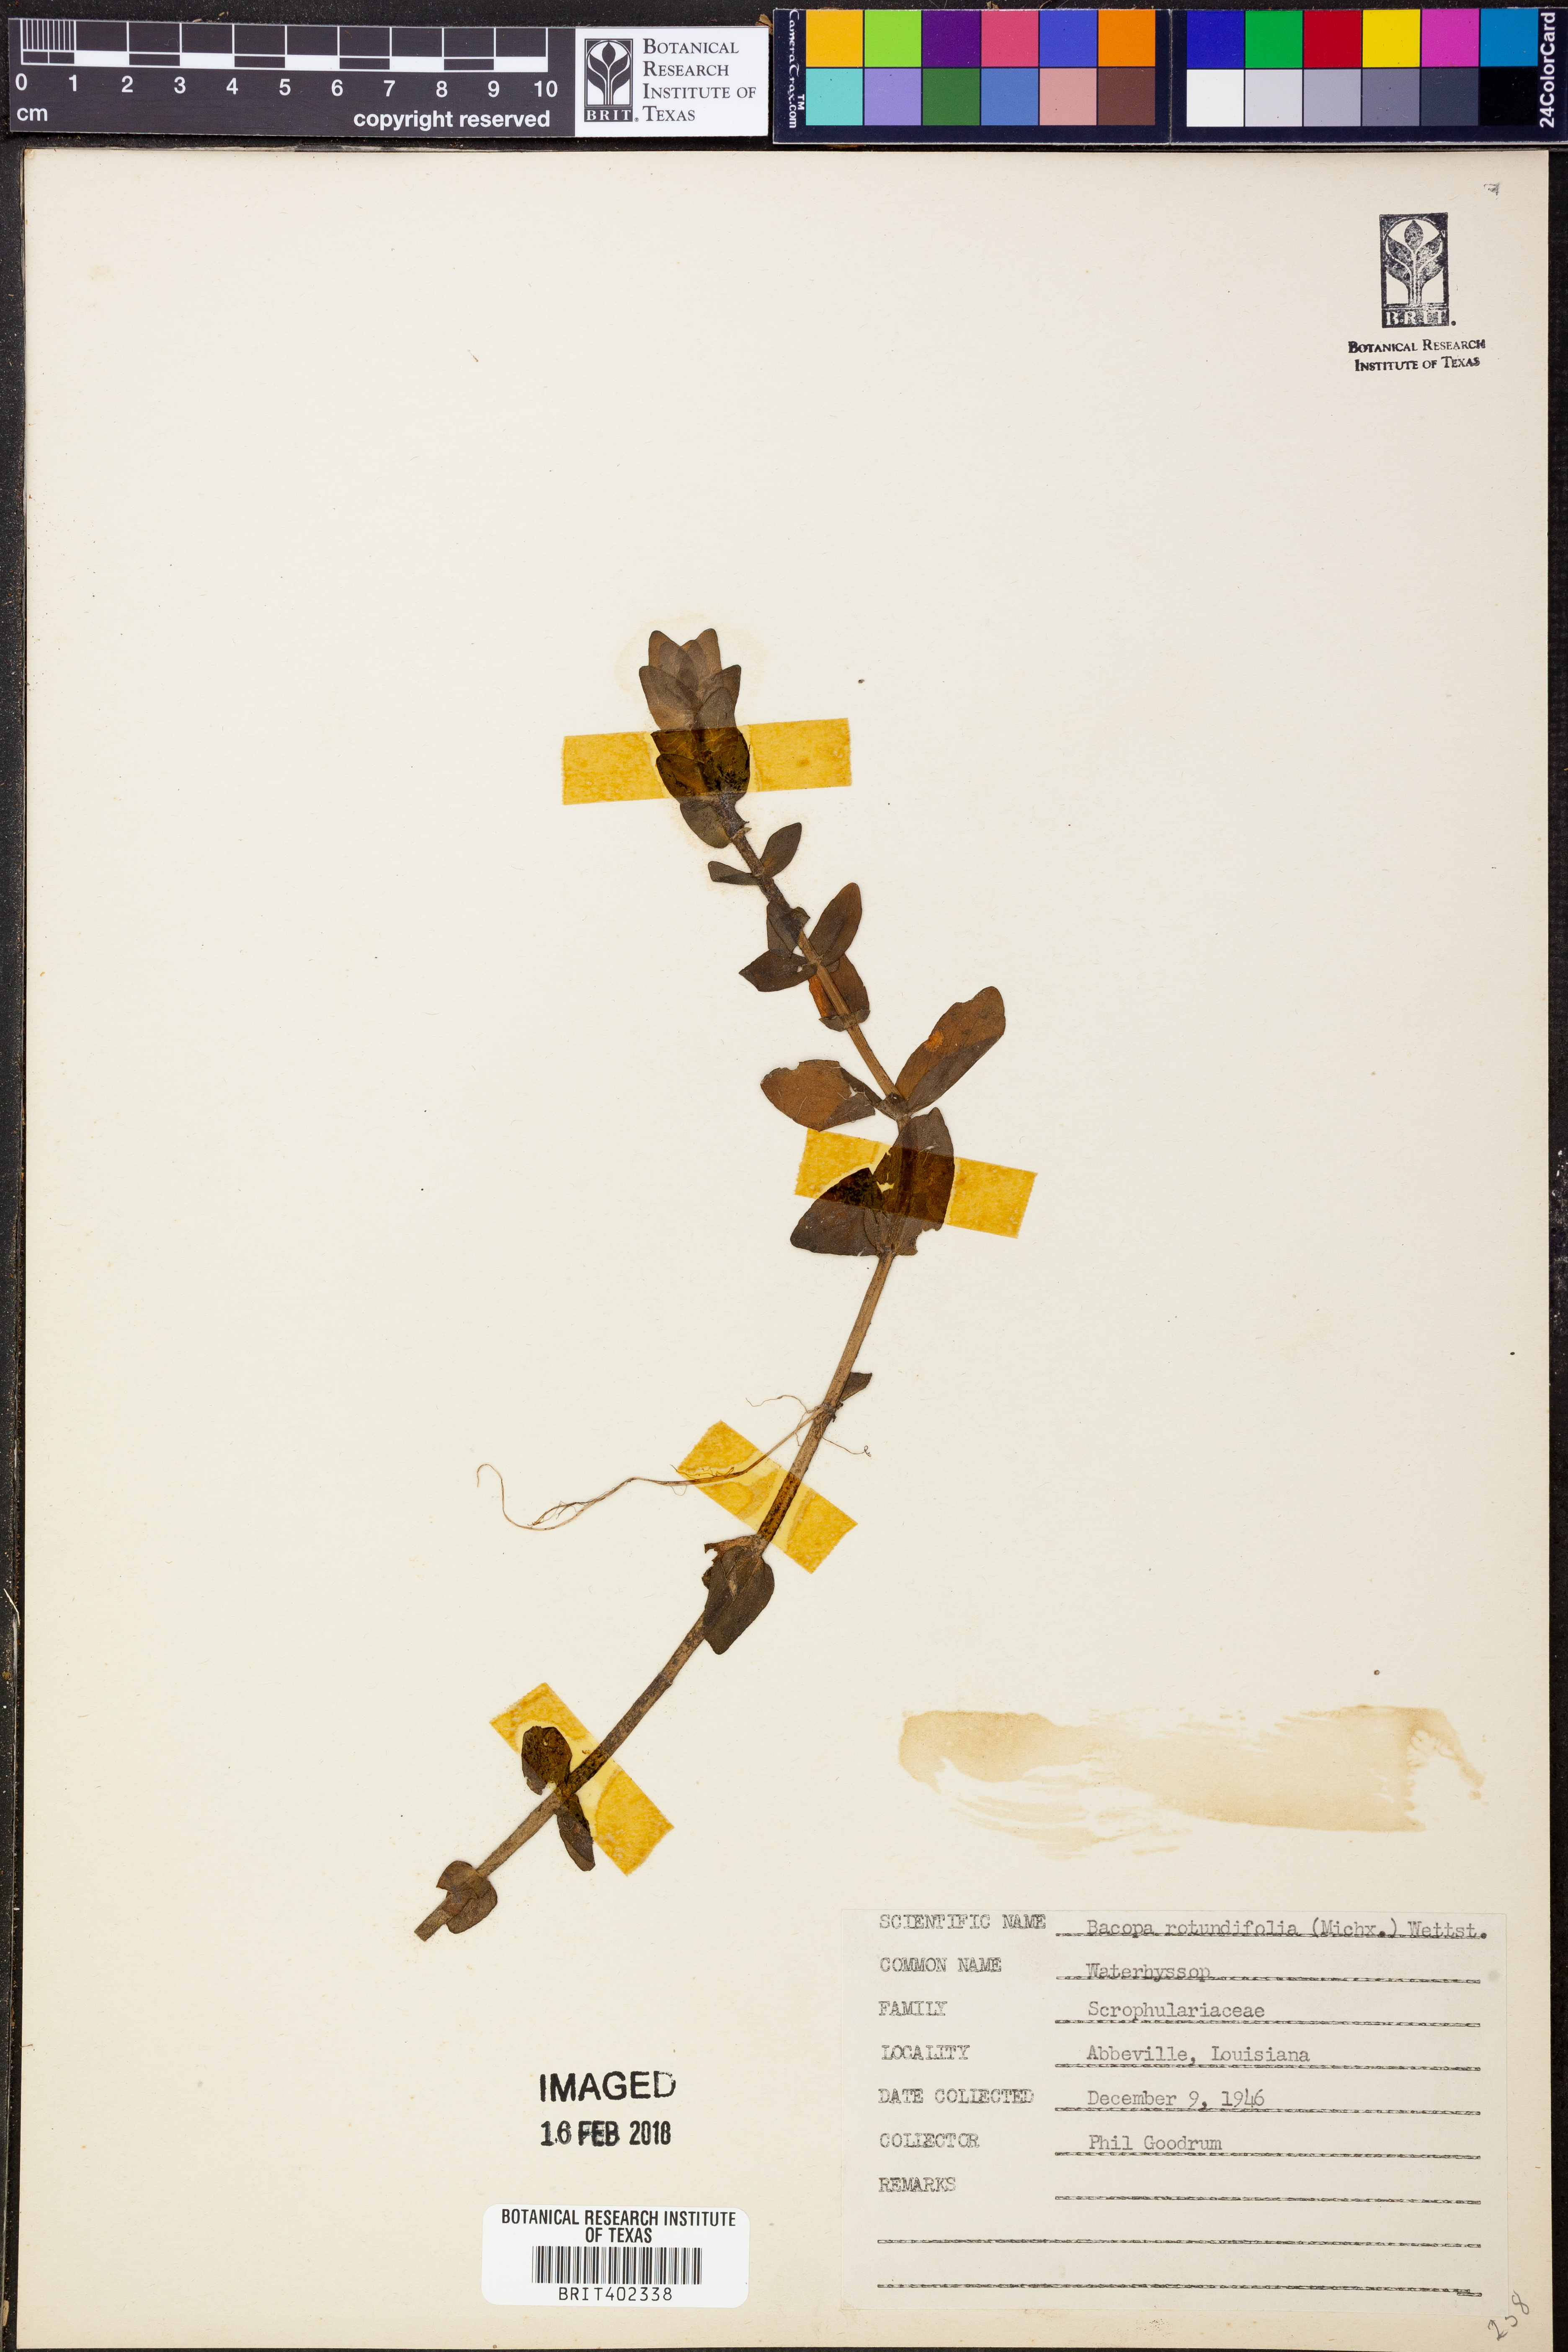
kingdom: Plantae
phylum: Tracheophyta
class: Magnoliopsida
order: Lamiales
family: Plantaginaceae
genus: Bacopa
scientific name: Bacopa rotundifolia
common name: Disc water hyssop
